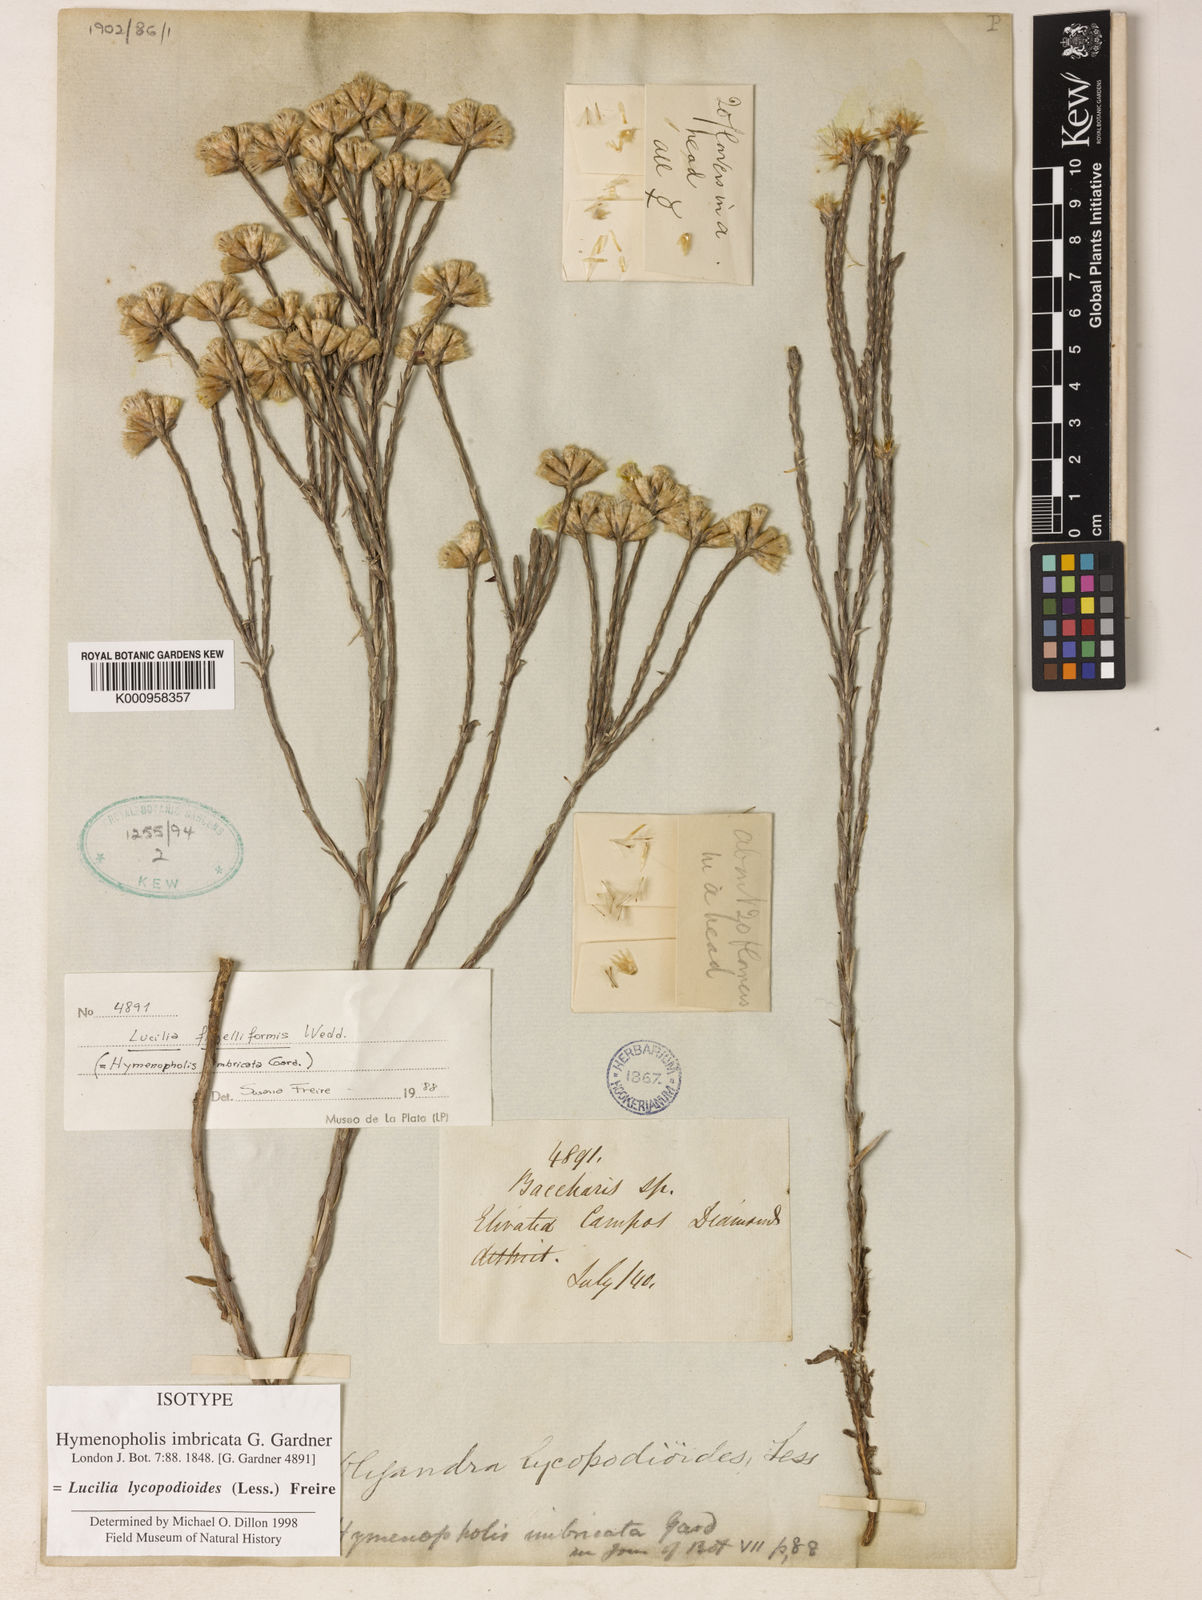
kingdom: Plantae
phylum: Tracheophyta
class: Magnoliopsida
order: Asterales
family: Asteraceae
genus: Lucilia
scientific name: Lucilia lycopodioides
